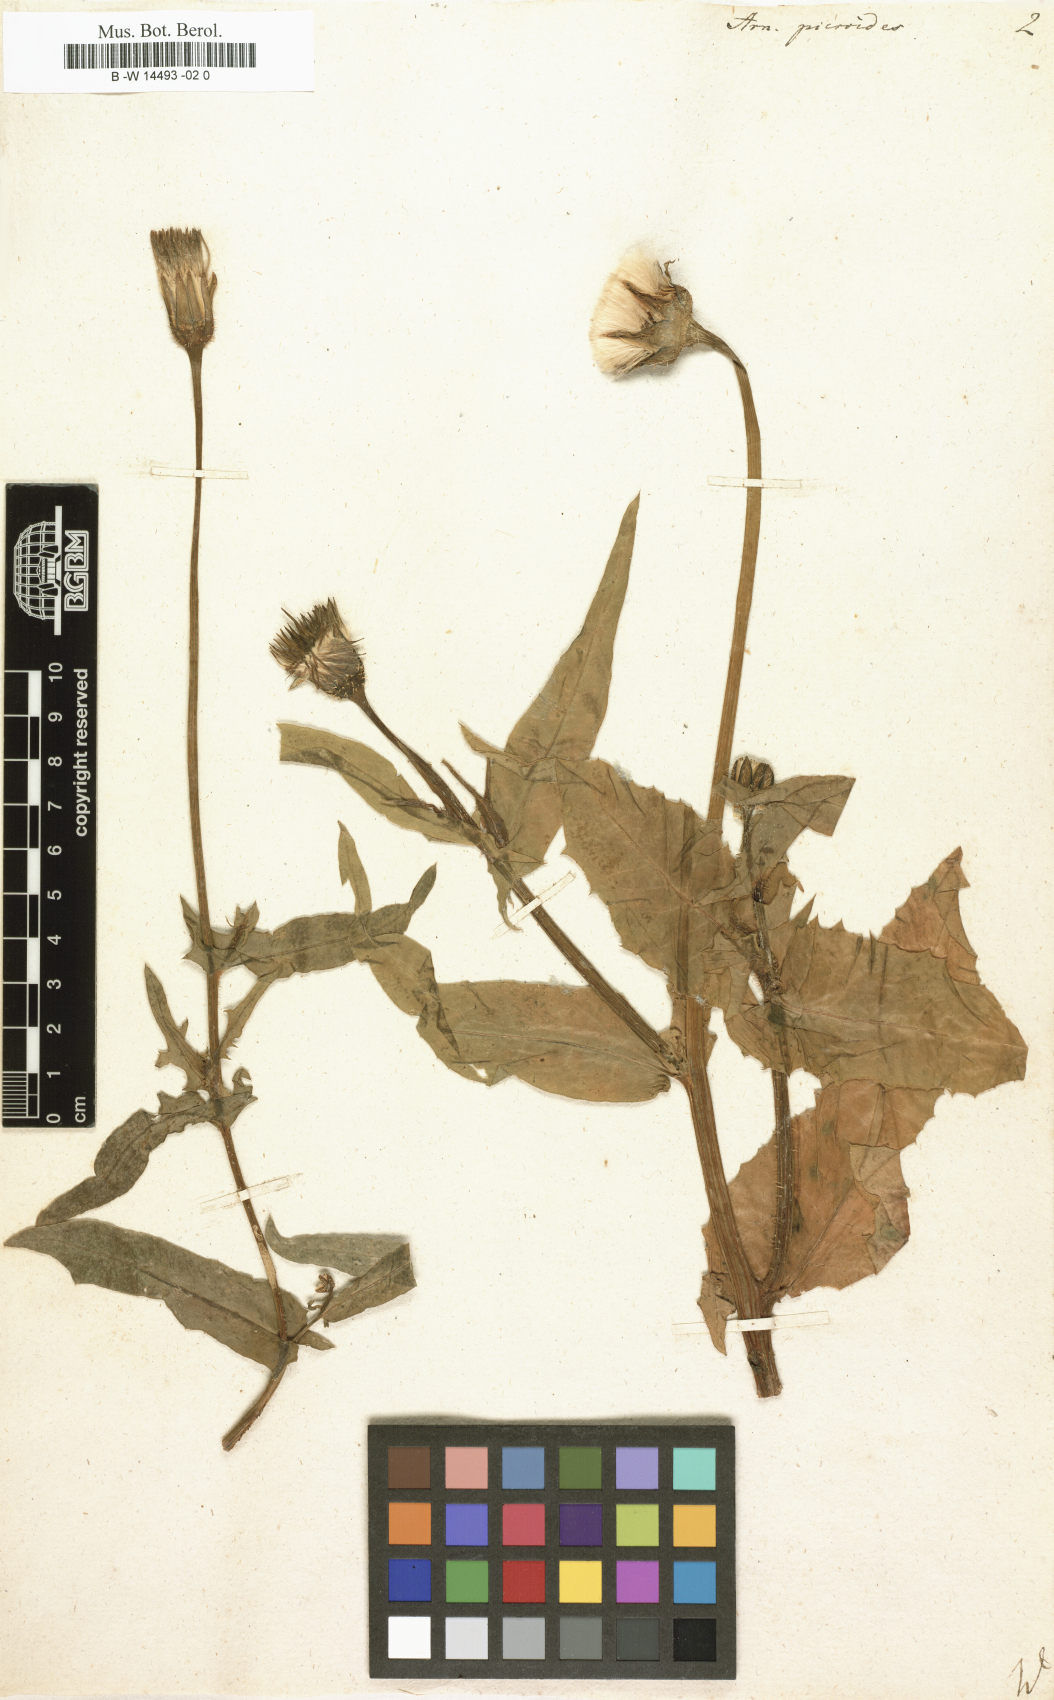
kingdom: Plantae
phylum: Tracheophyta
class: Magnoliopsida
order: Asterales
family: Asteraceae
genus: Urospermum
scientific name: Urospermum picroides
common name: False hawkbit
